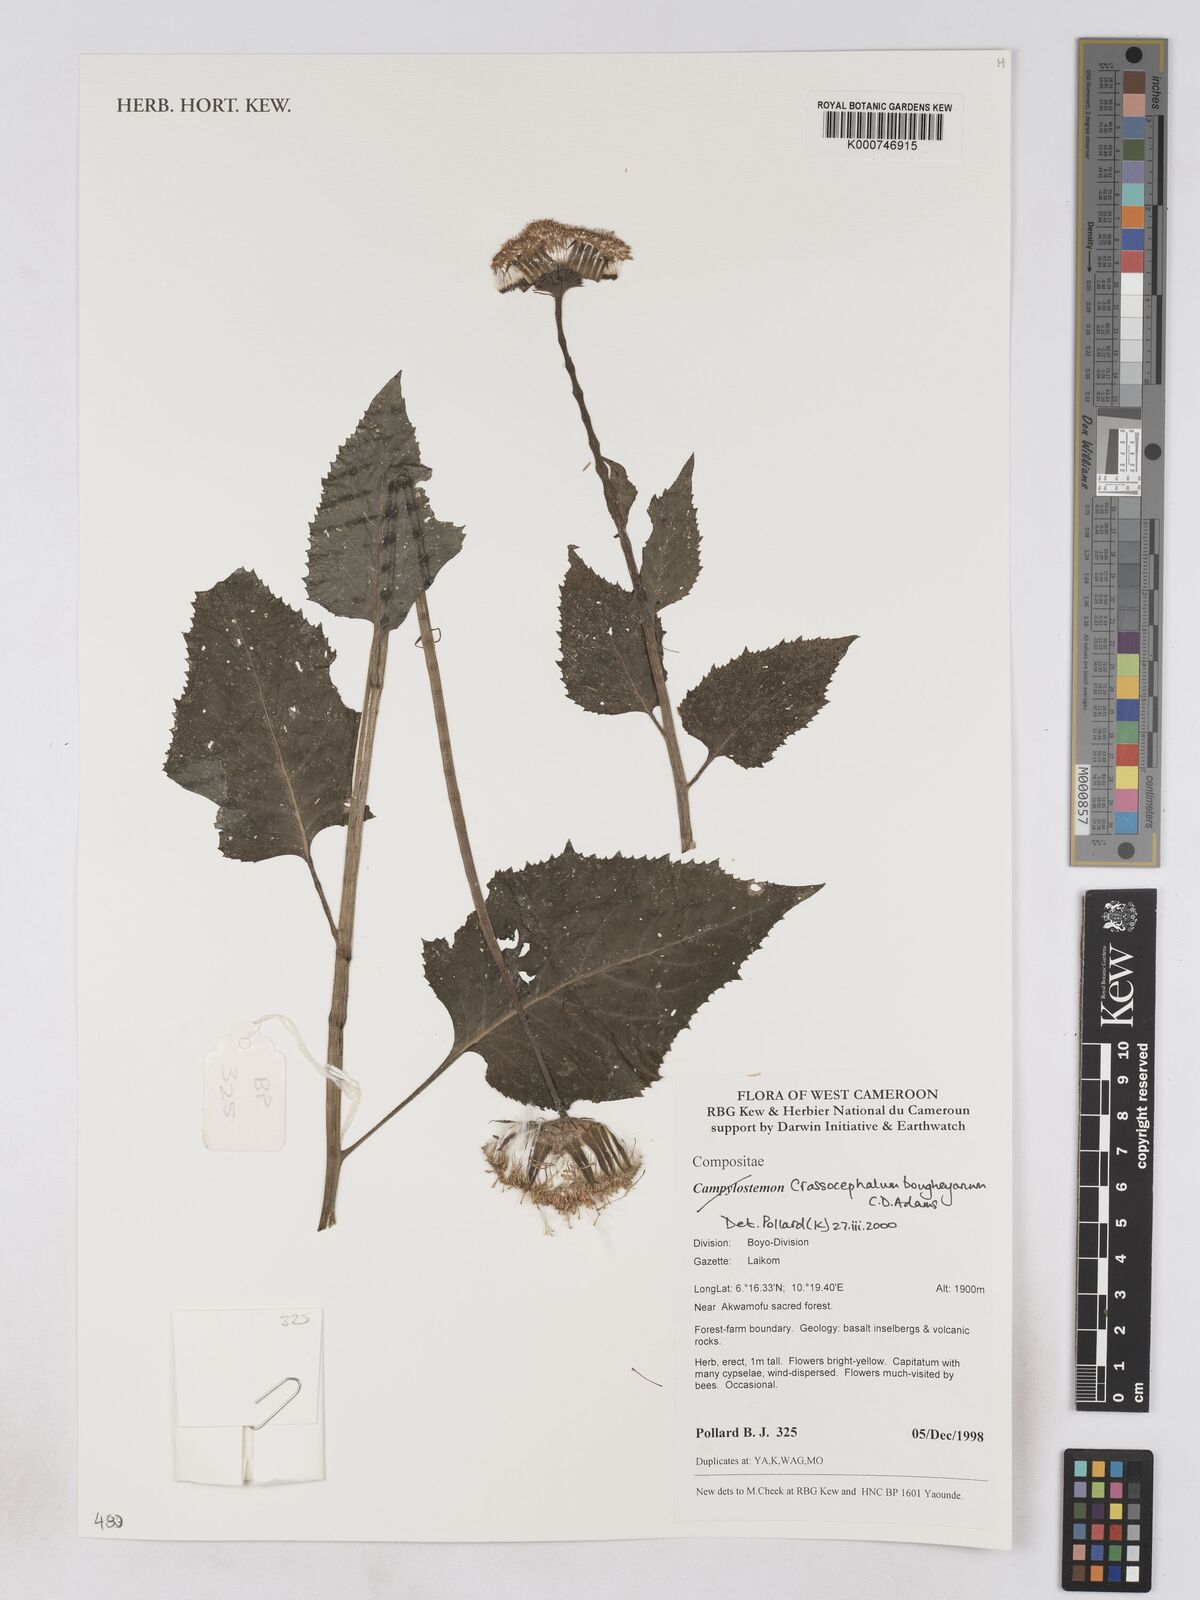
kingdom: Plantae
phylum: Tracheophyta
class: Magnoliopsida
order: Asterales
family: Asteraceae
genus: Crassocephalum
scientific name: Crassocephalum bougheyanum
